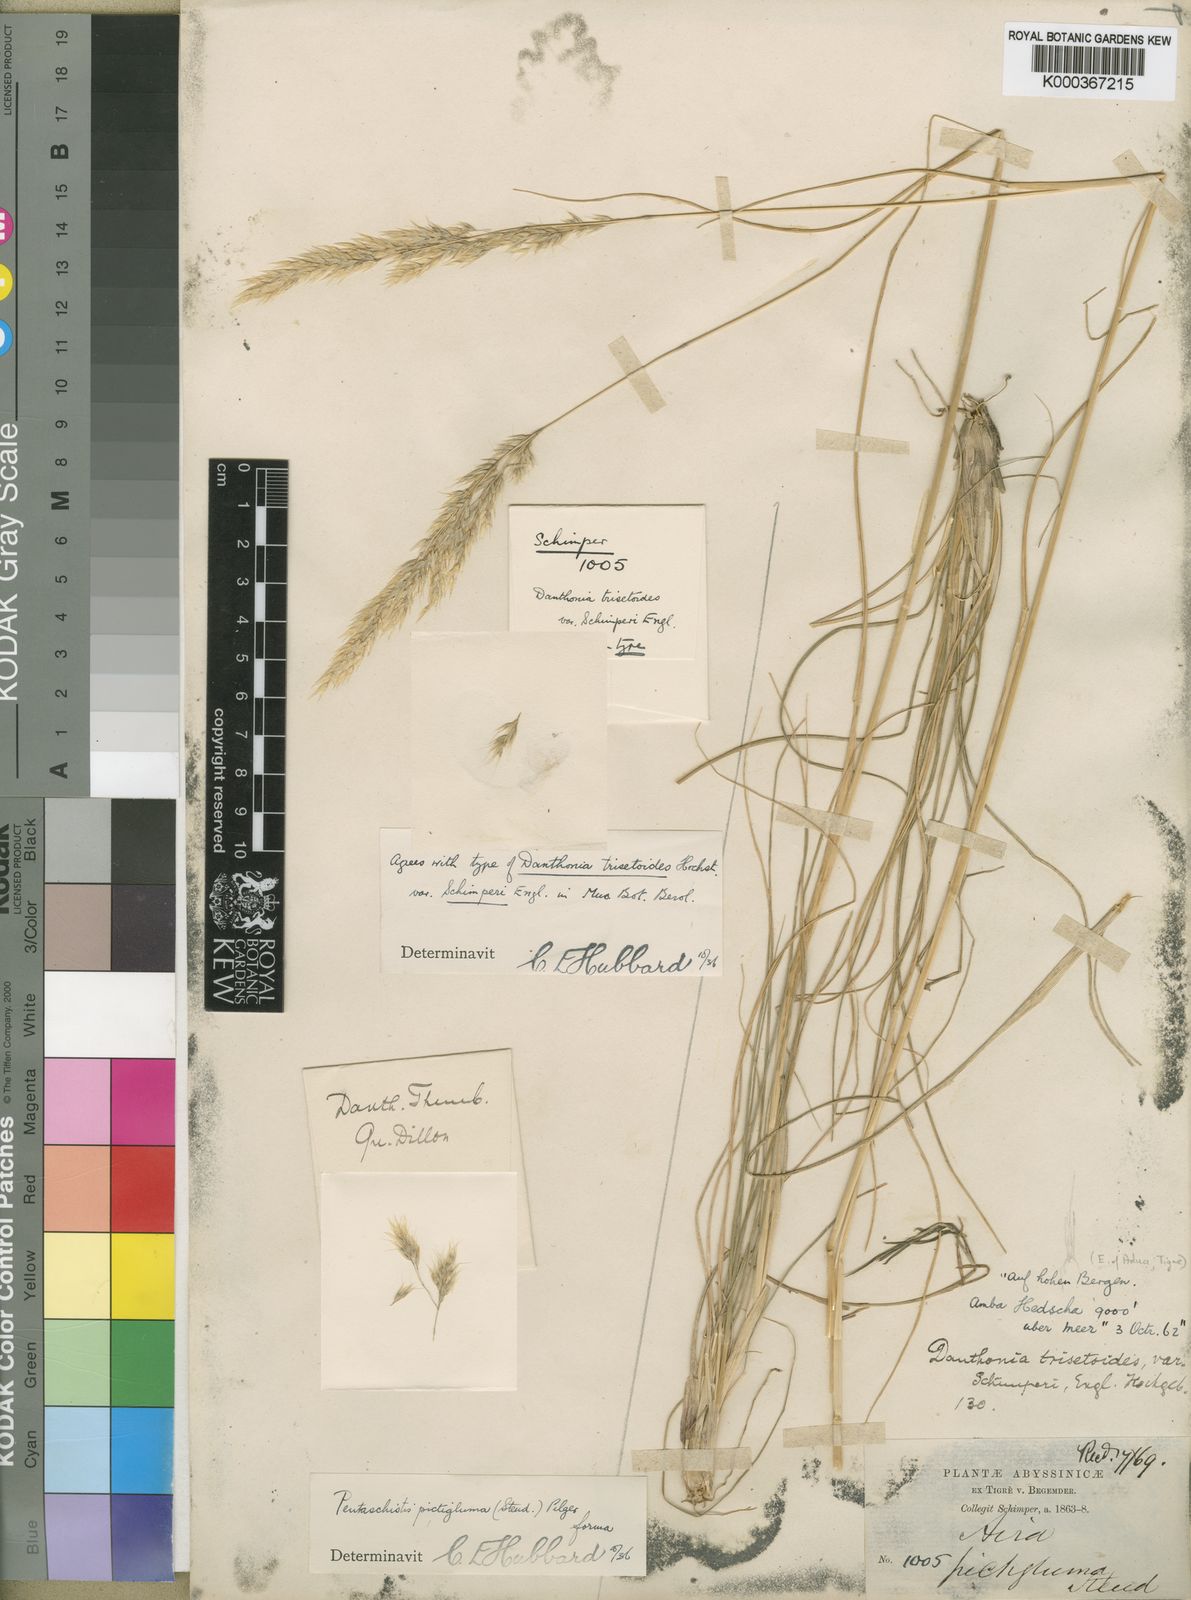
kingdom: Plantae
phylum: Tracheophyta
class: Liliopsida
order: Poales
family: Poaceae
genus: Pentameris
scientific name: Pentameris pictigluma
